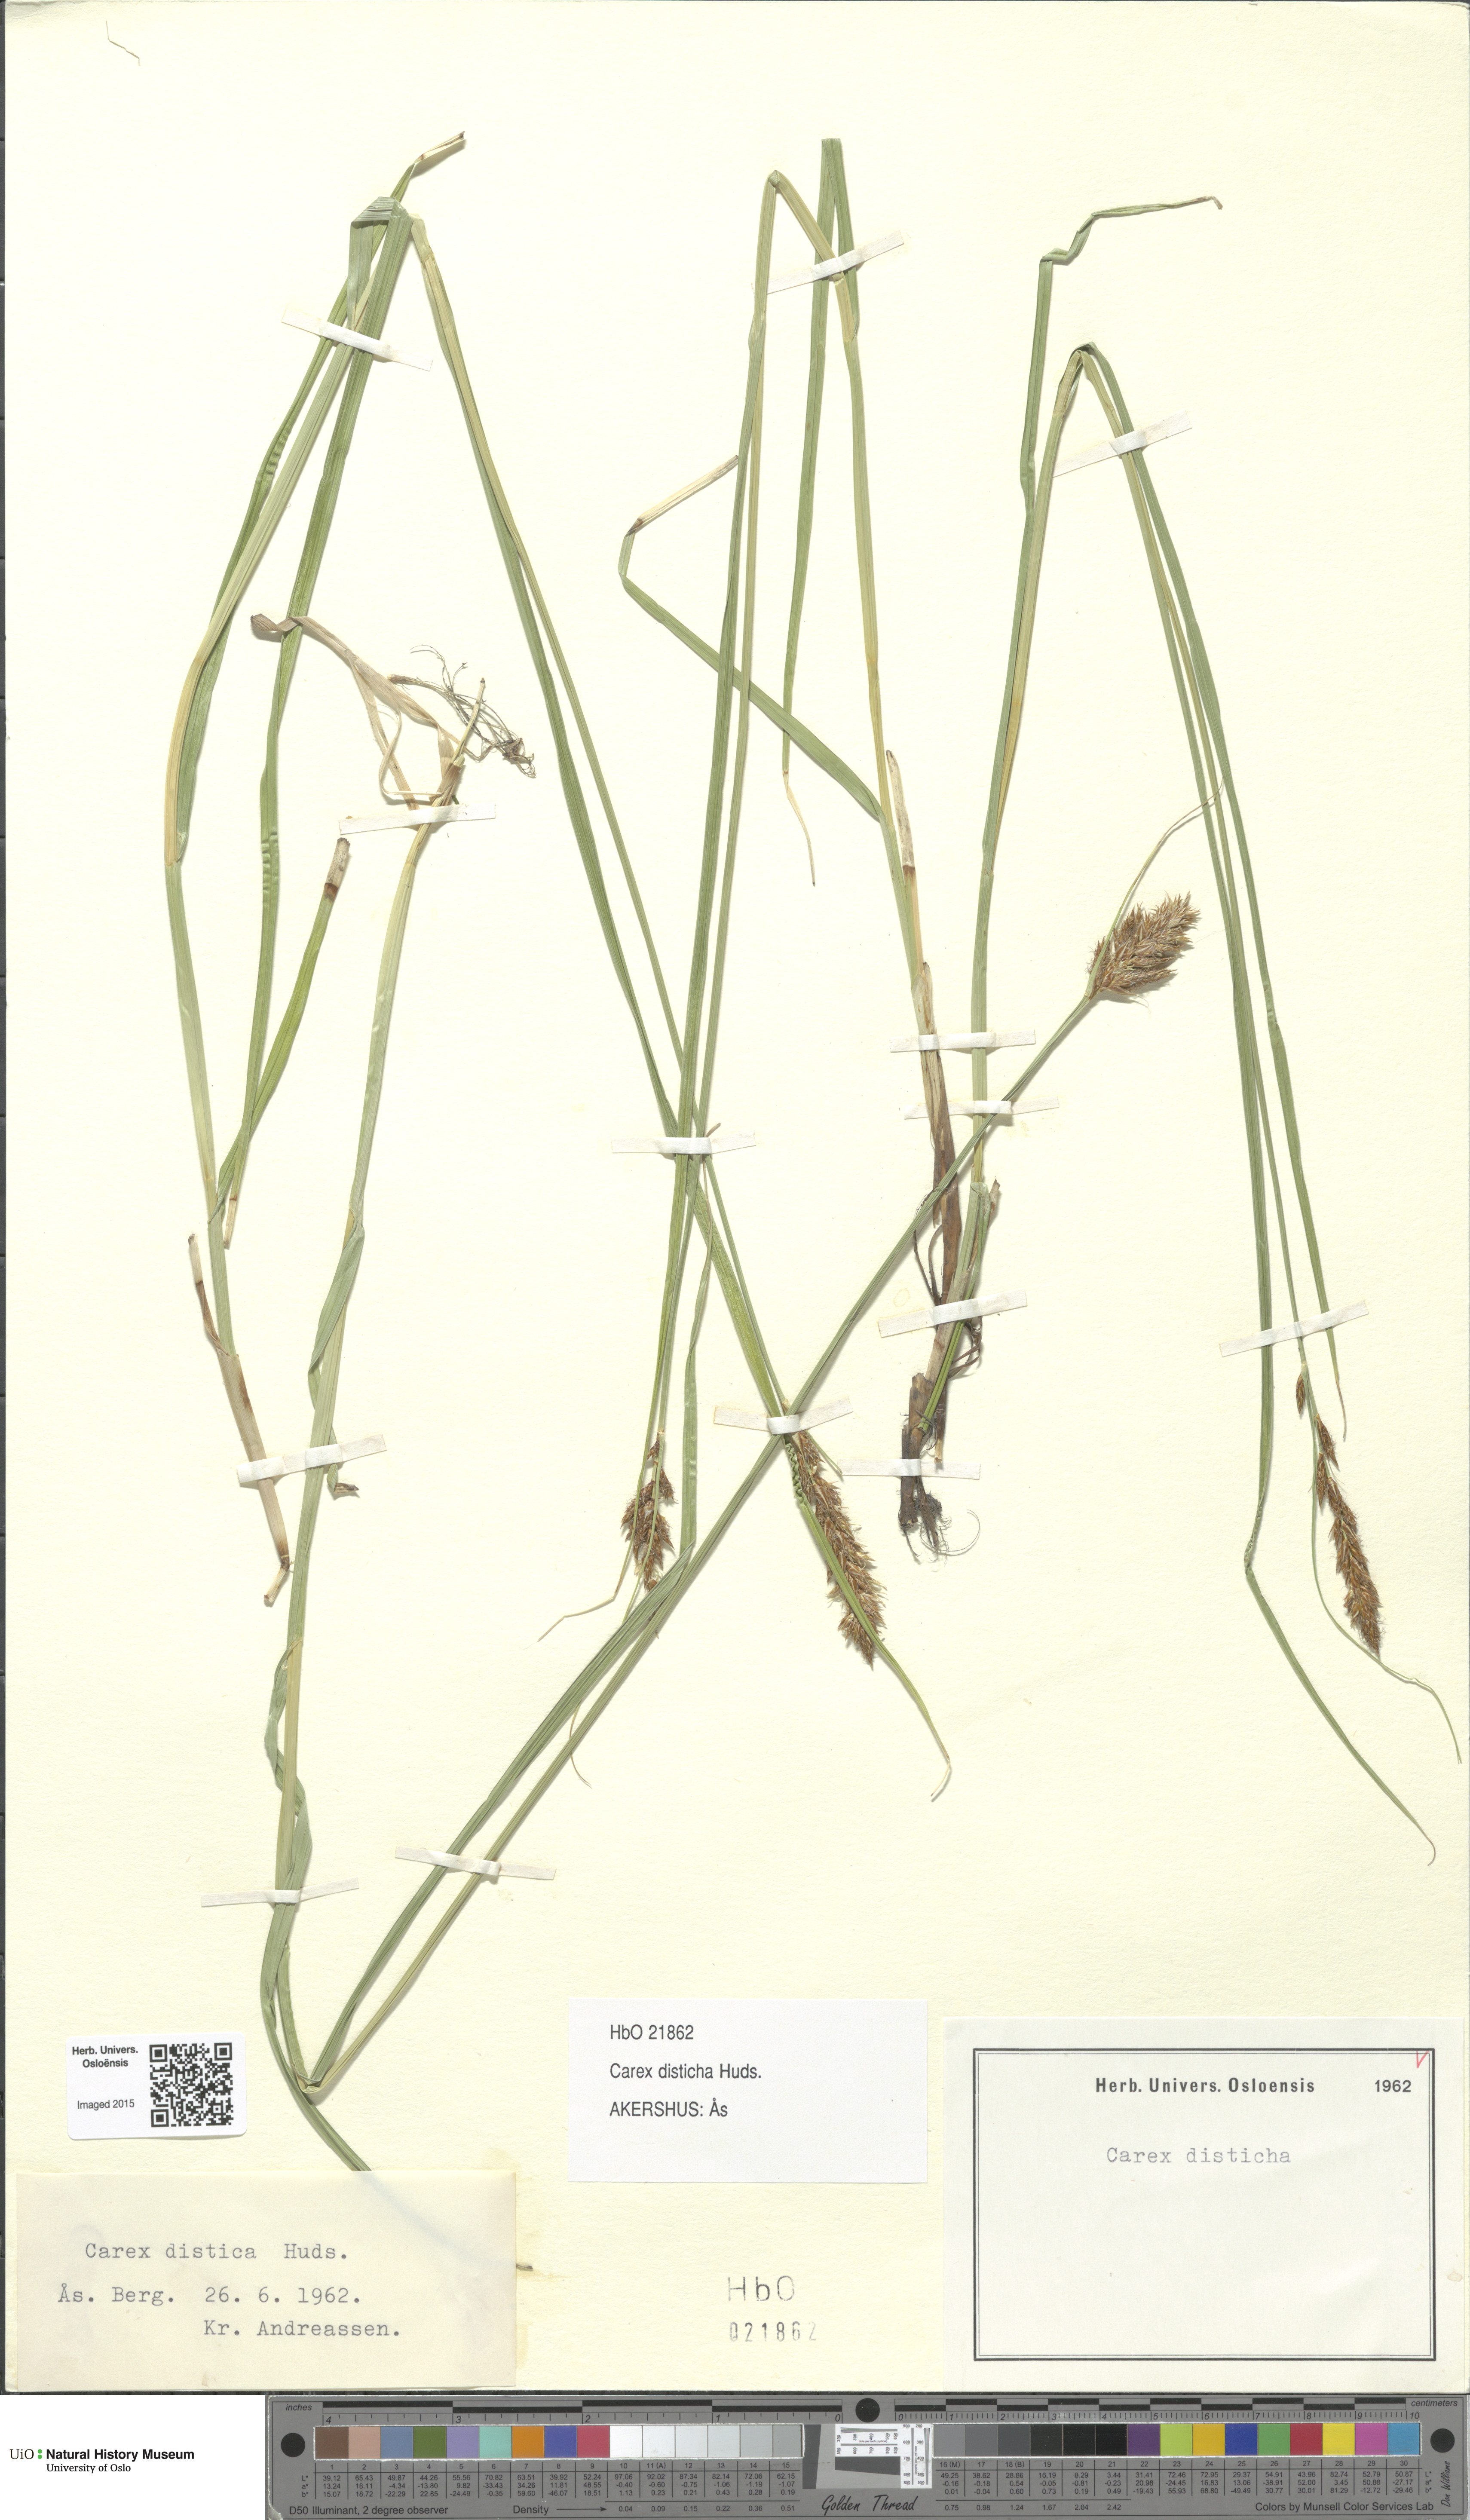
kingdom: Plantae
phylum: Tracheophyta
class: Liliopsida
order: Poales
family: Cyperaceae
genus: Carex
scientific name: Carex disticha
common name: Brown sedge
